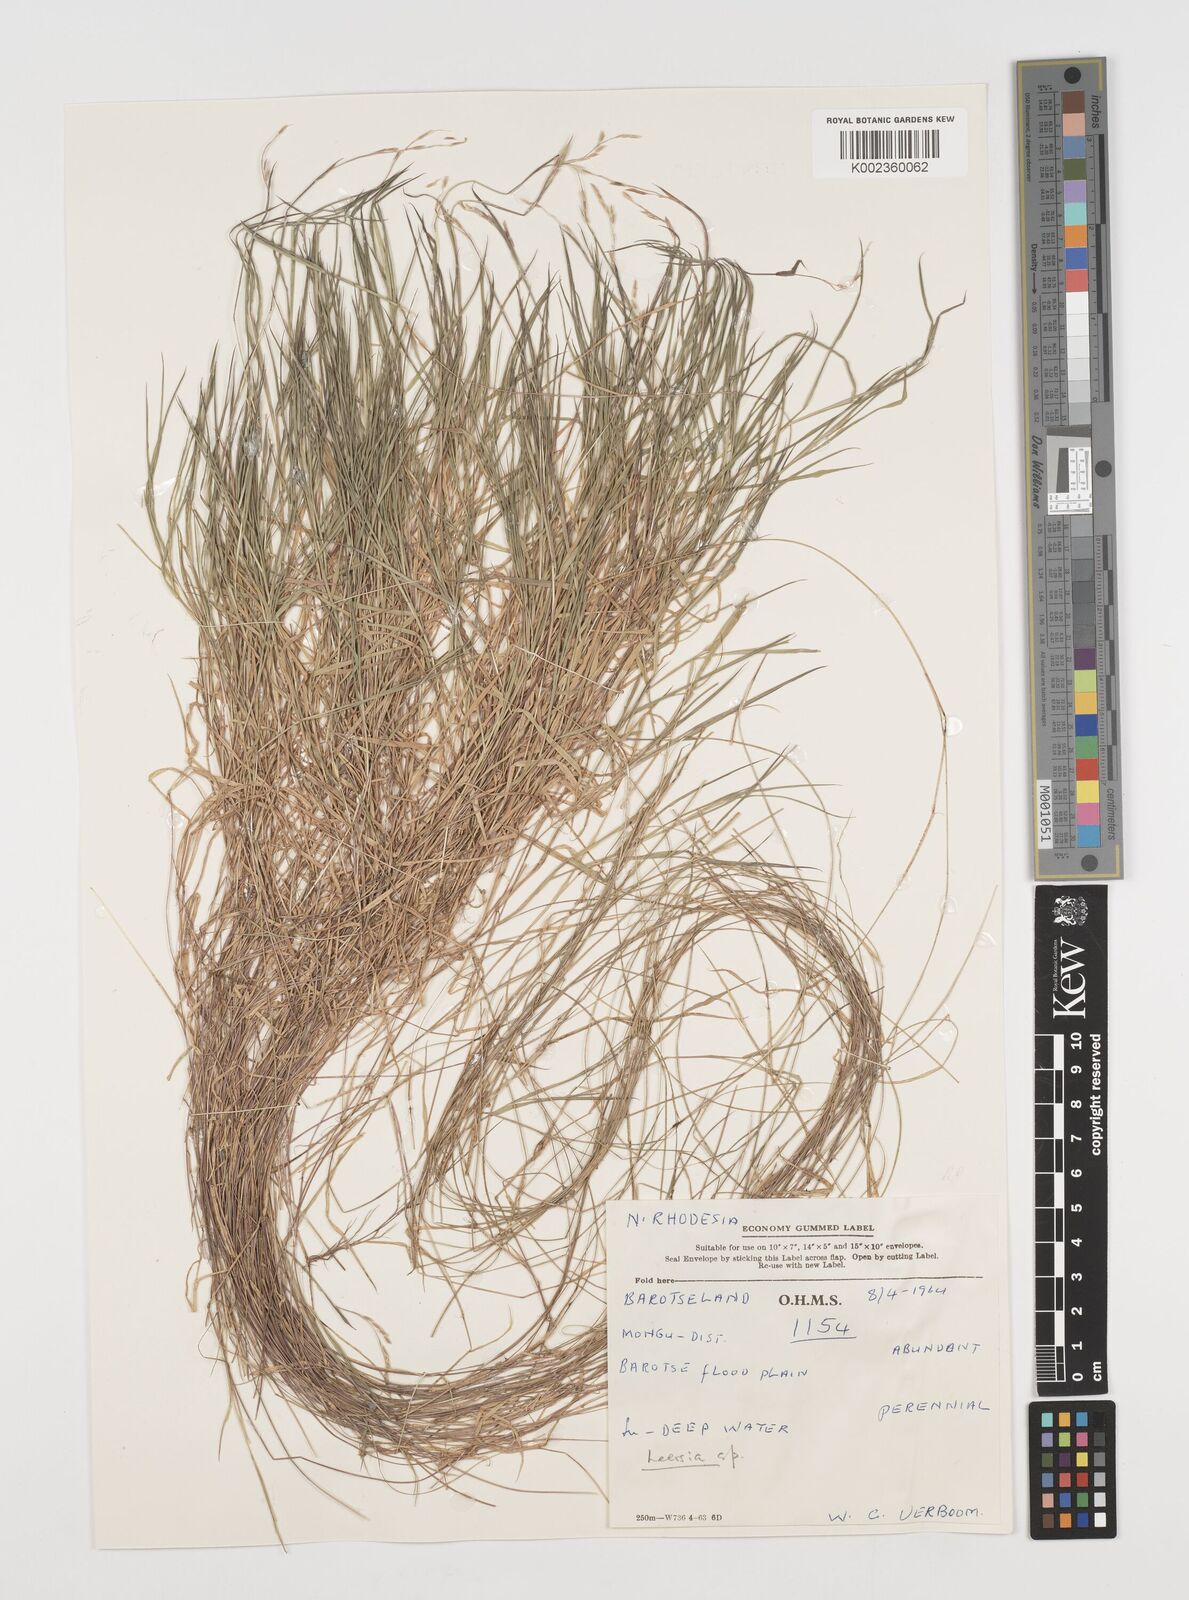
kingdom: Plantae
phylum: Tracheophyta
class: Liliopsida
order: Poales
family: Poaceae
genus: Leersia
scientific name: Leersia denudata
